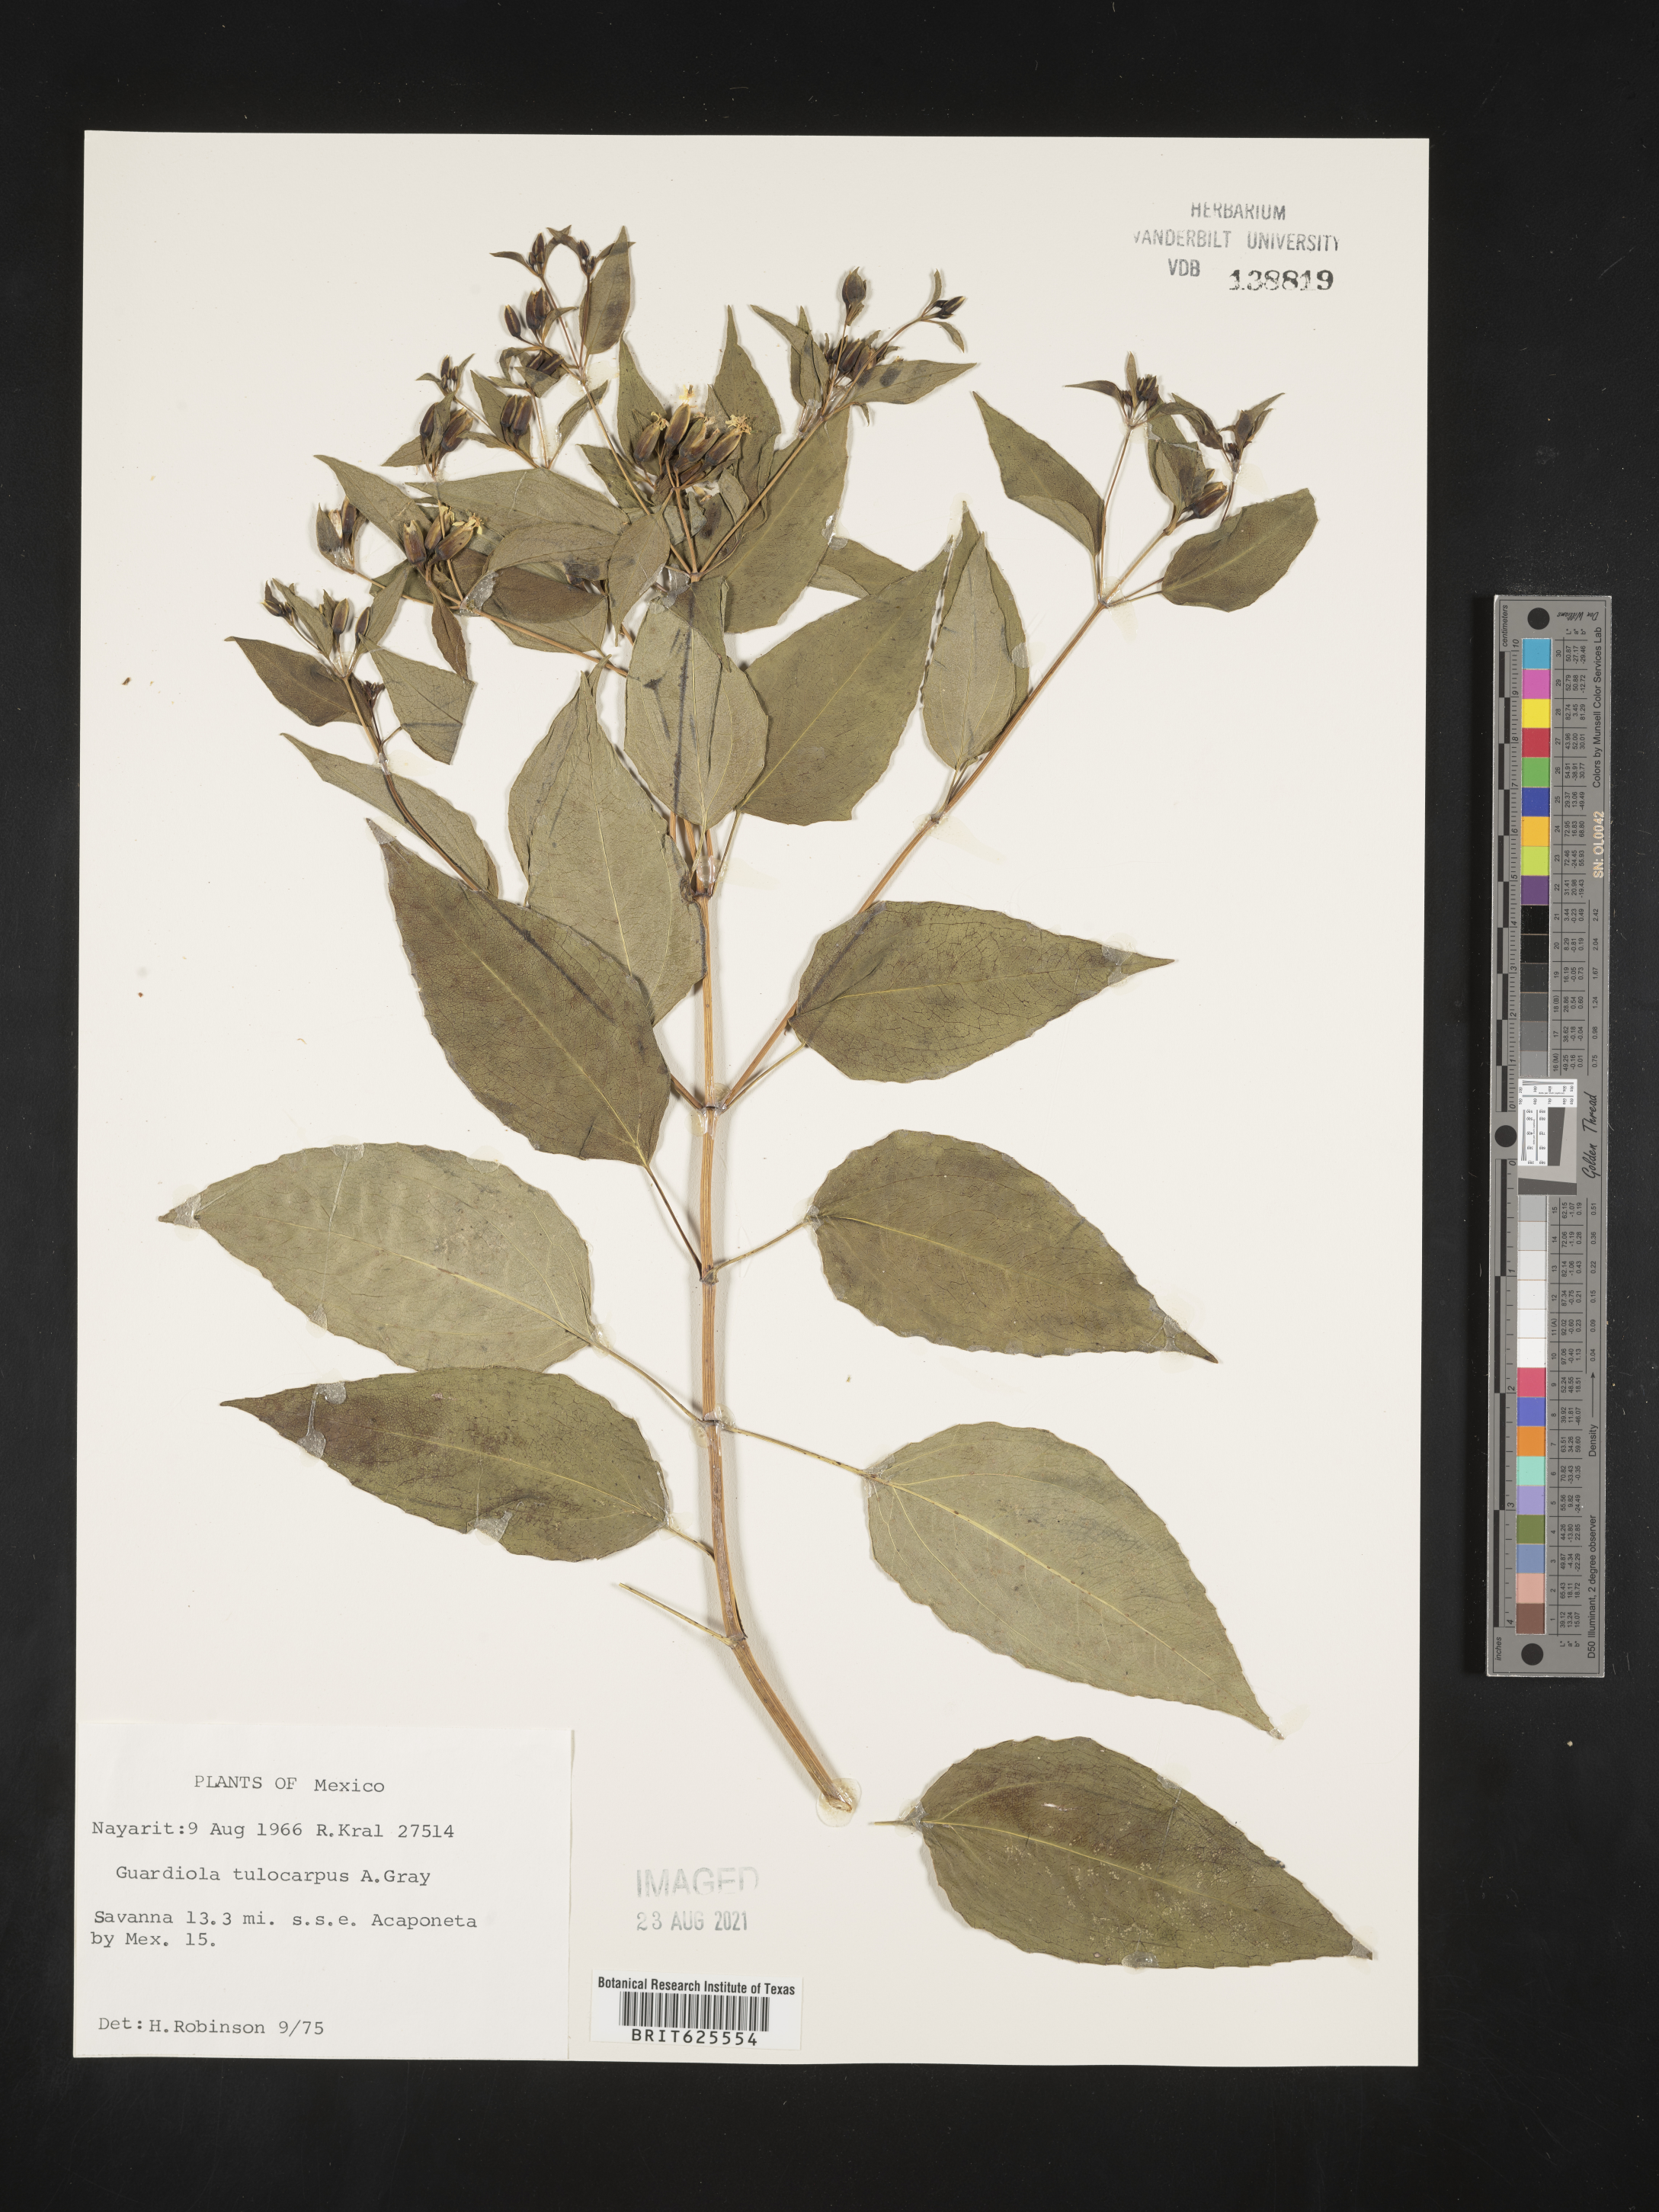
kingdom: Plantae
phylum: Tracheophyta
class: Magnoliopsida
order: Asterales
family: Asteraceae
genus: Guardiola
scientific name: Guardiola
